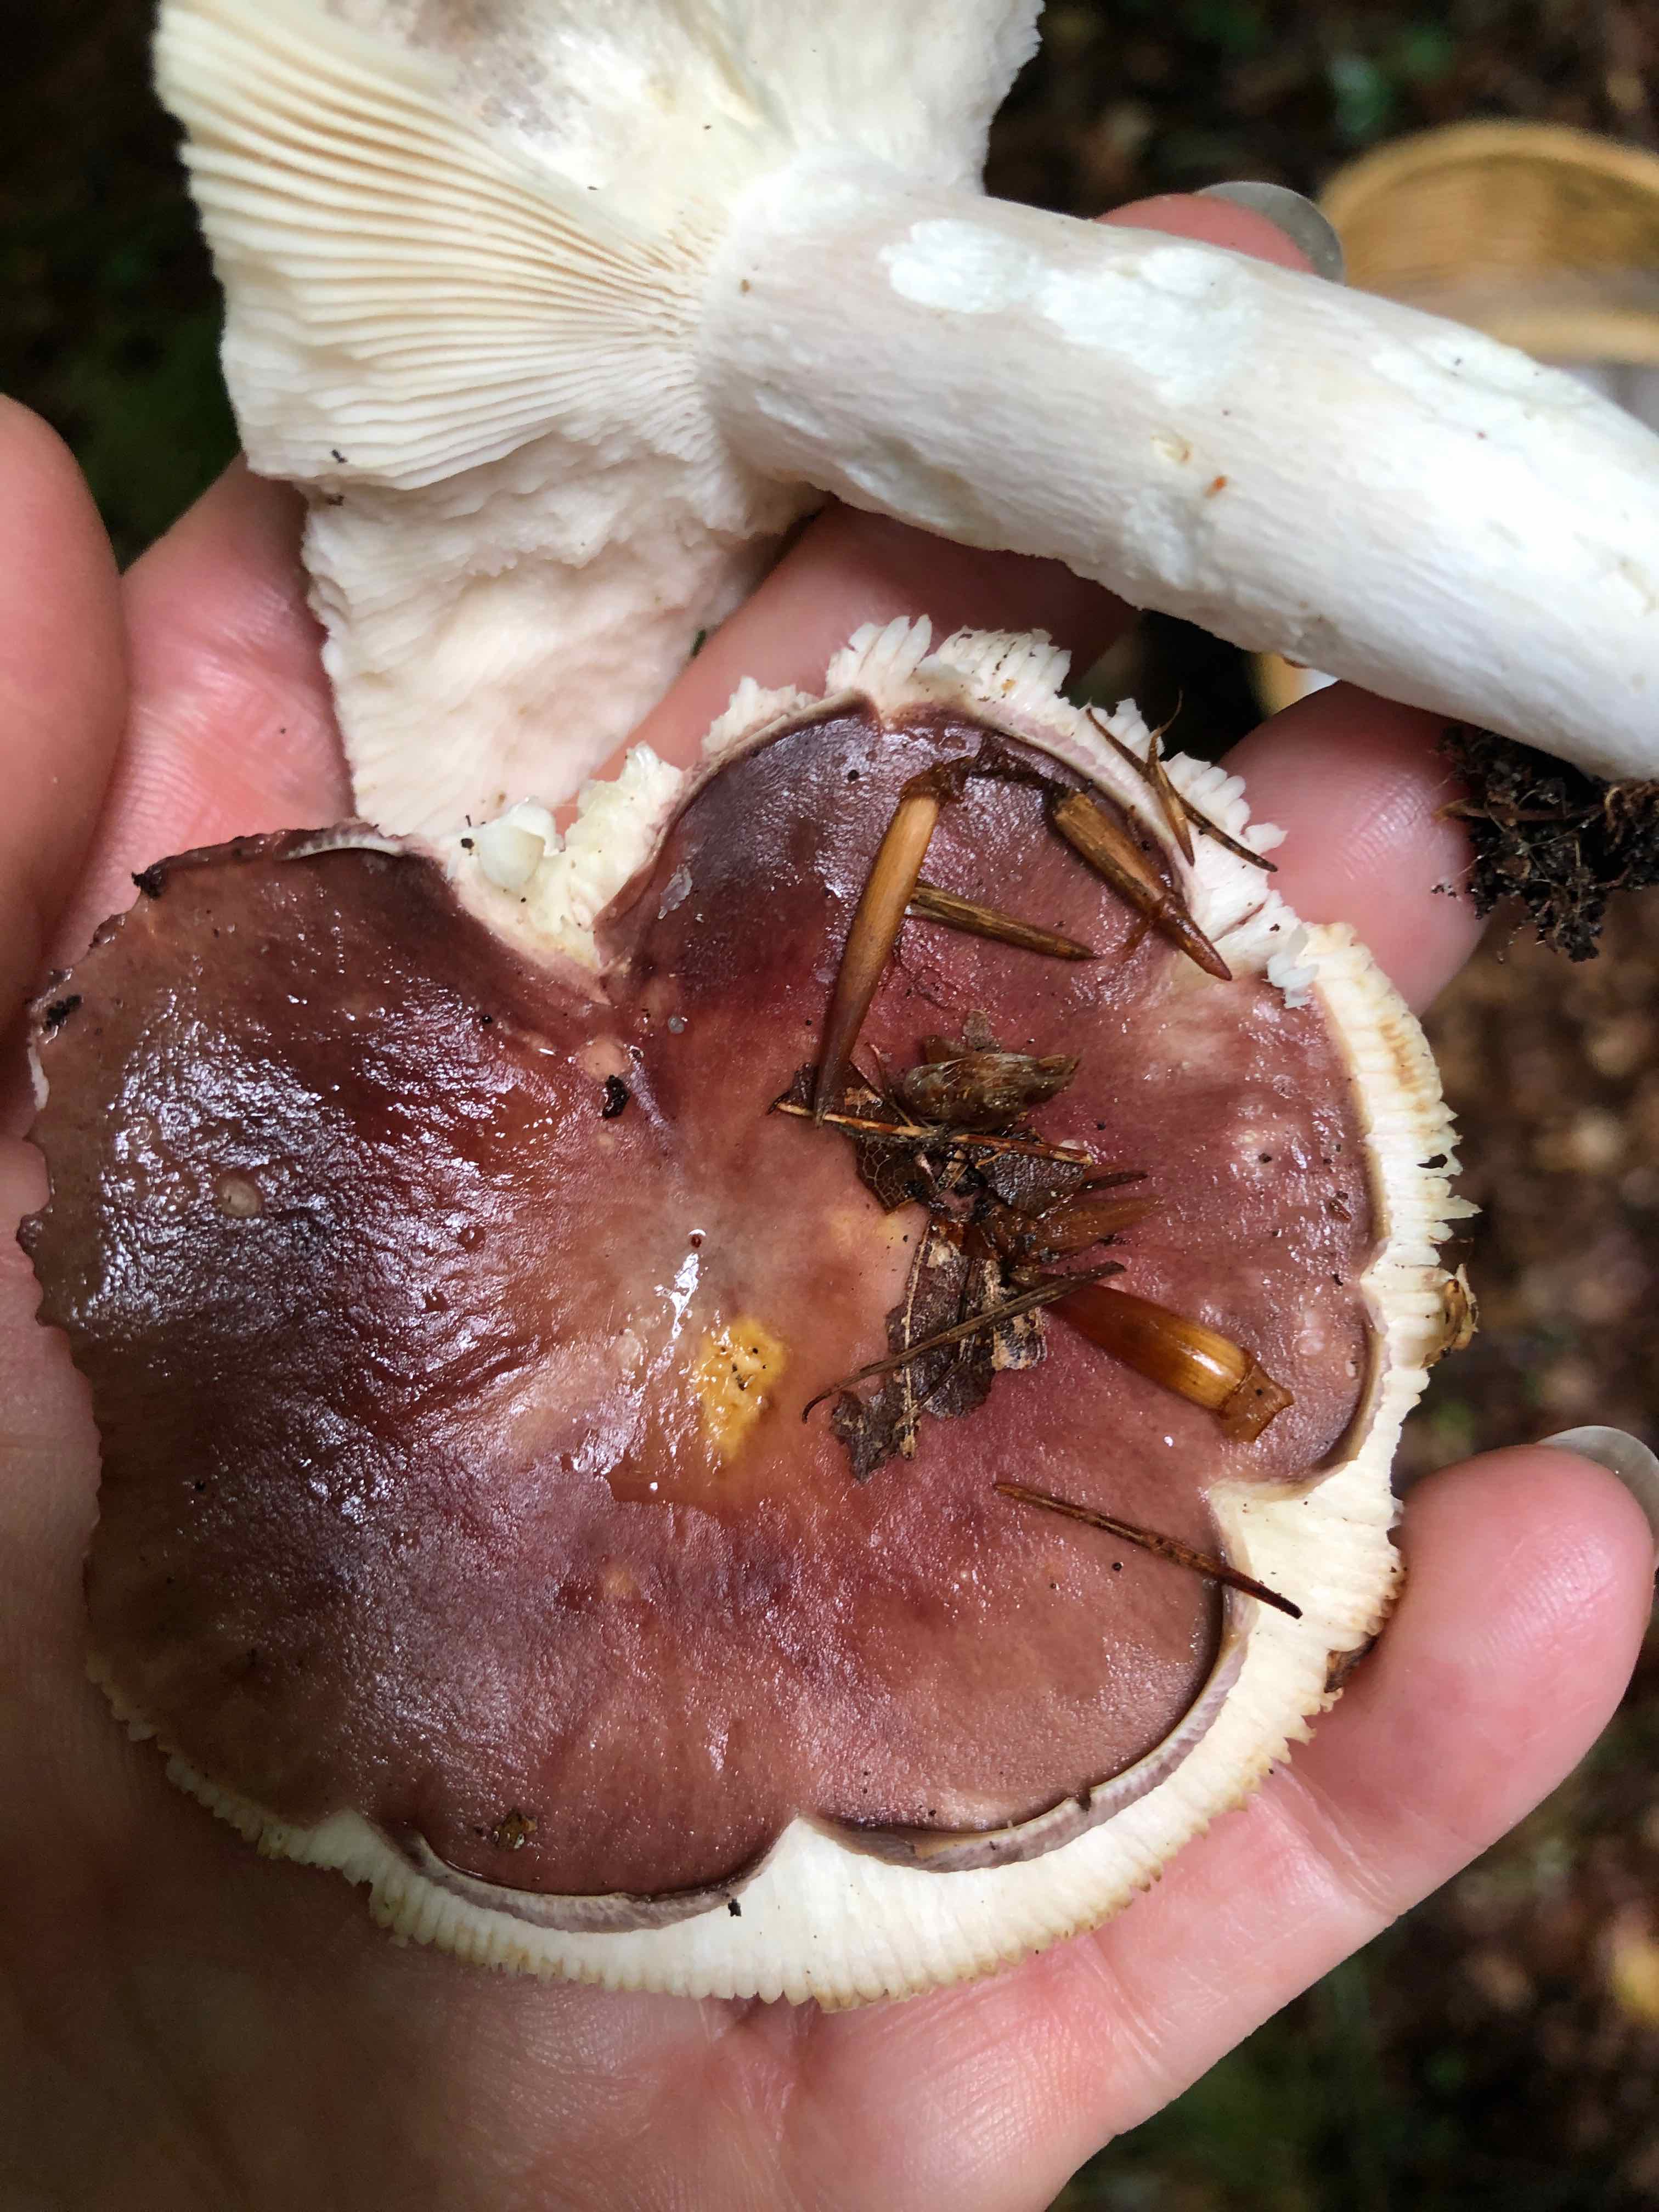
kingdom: Fungi
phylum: Basidiomycota
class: Agaricomycetes
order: Russulales
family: Russulaceae
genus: Russula
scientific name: Russula
